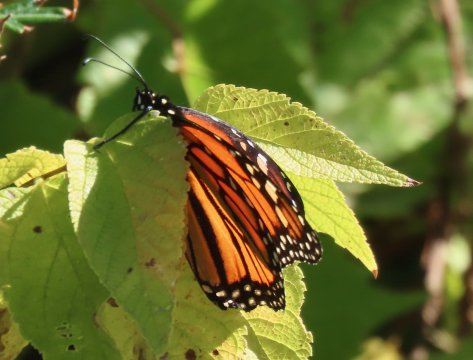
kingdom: Animalia
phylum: Arthropoda
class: Insecta
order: Lepidoptera
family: Nymphalidae
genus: Danaus
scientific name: Danaus plexippus
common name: Monarch
